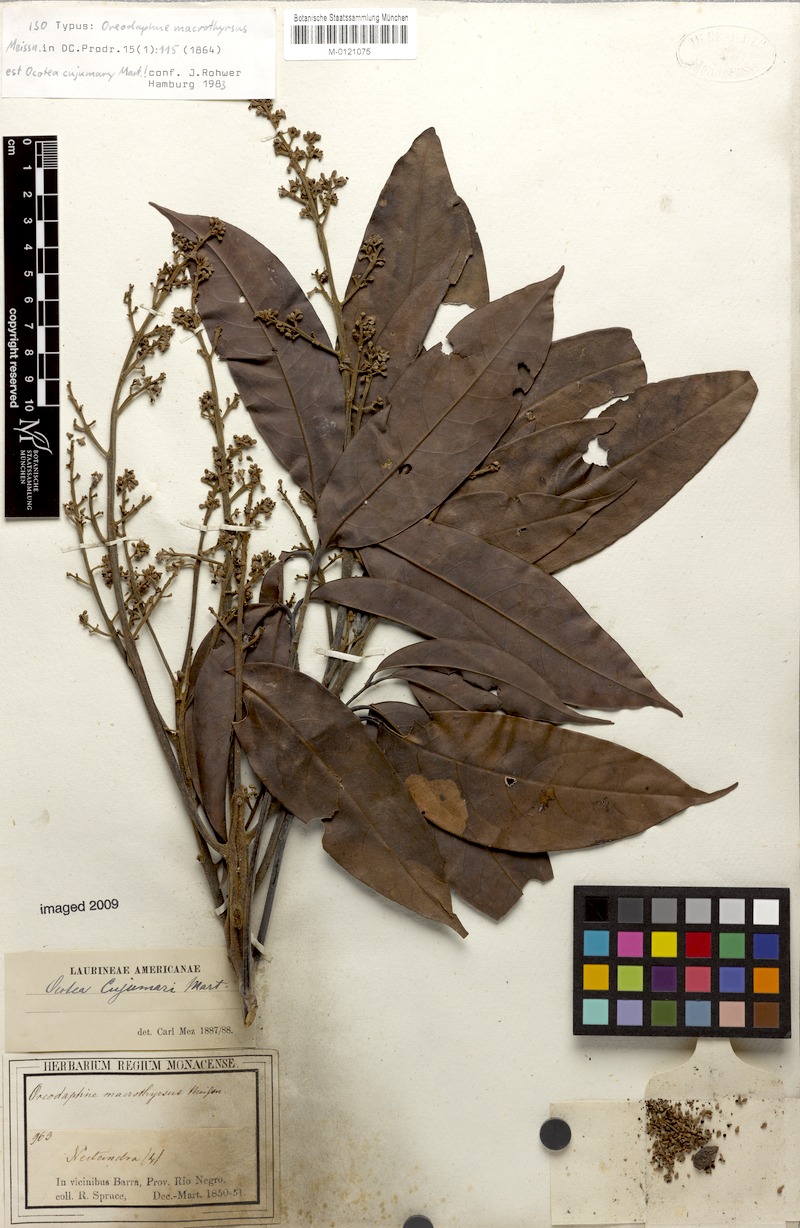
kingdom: Plantae
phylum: Tracheophyta
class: Magnoliopsida
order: Laurales
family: Lauraceae
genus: Ocotea
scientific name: Ocotea cujumary
